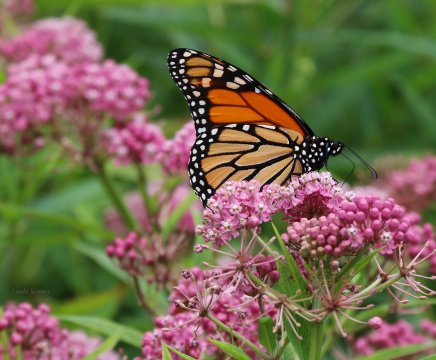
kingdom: Animalia
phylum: Arthropoda
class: Insecta
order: Lepidoptera
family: Nymphalidae
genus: Danaus
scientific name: Danaus plexippus
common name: Monarch
